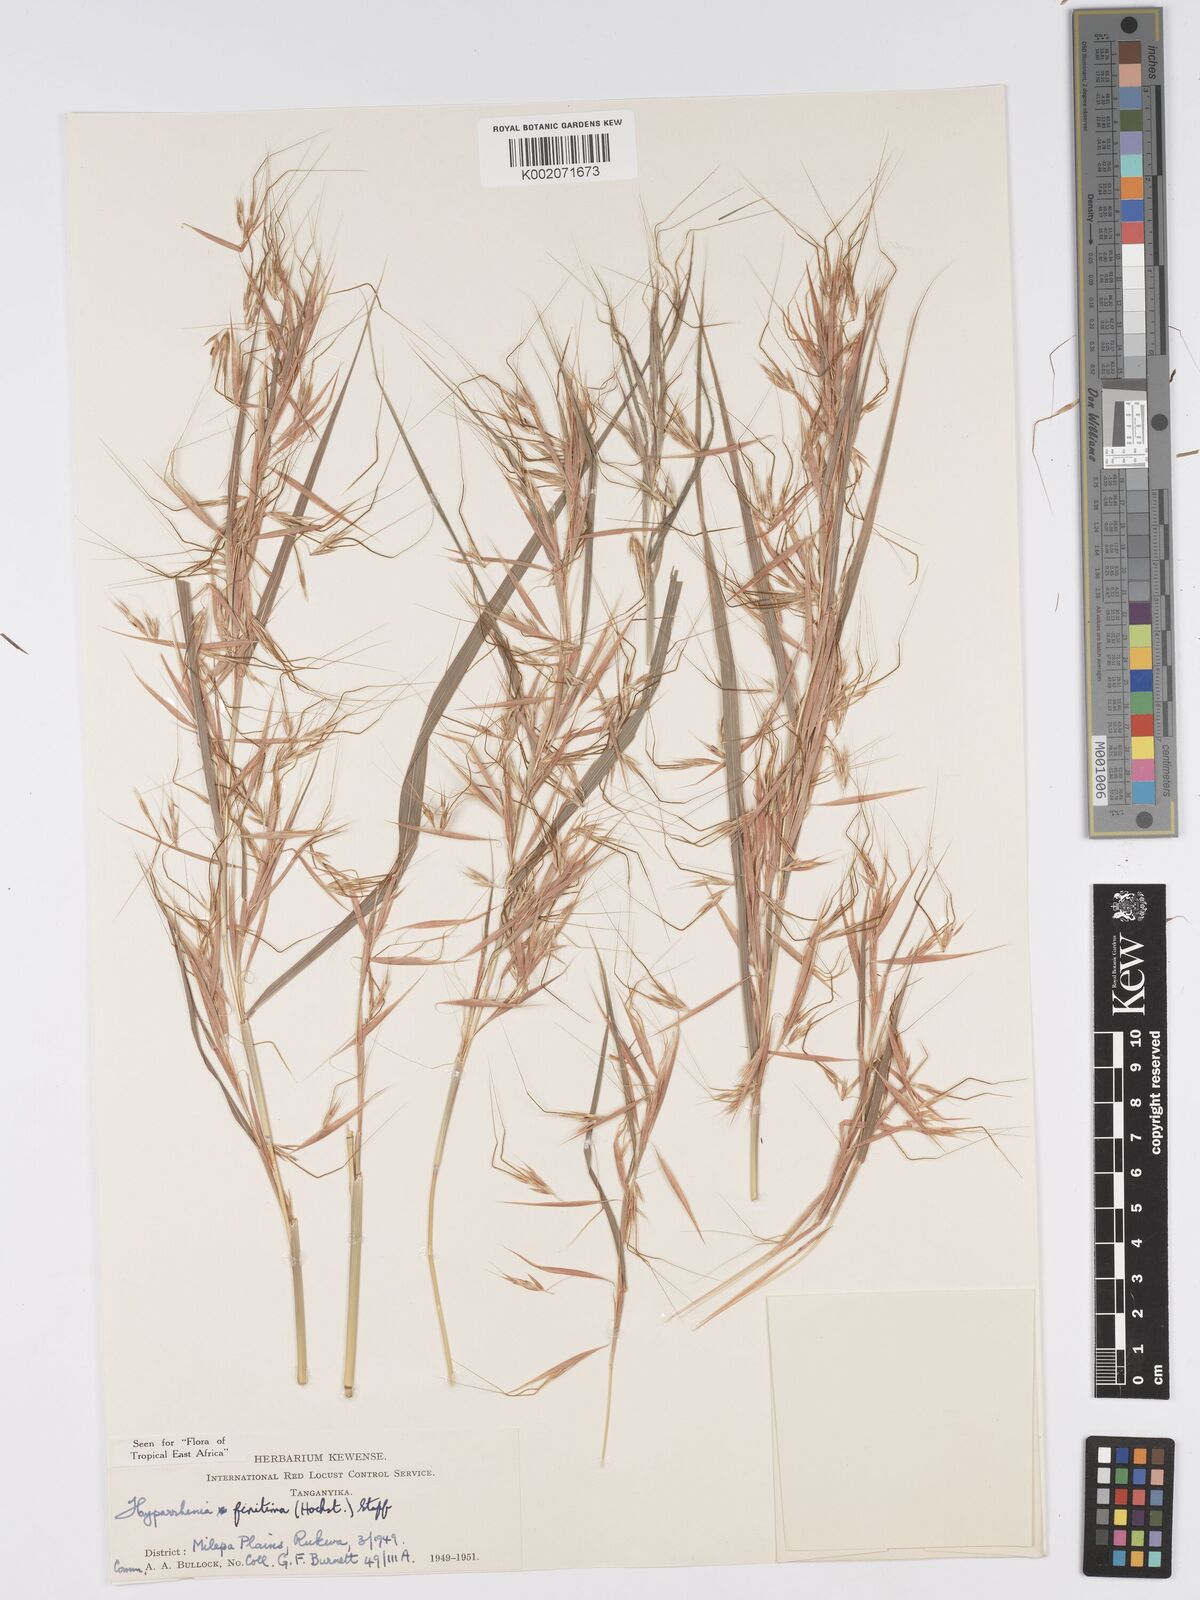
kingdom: Plantae
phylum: Tracheophyta
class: Liliopsida
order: Poales
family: Poaceae
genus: Hyparrhenia
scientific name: Hyparrhenia finitima
